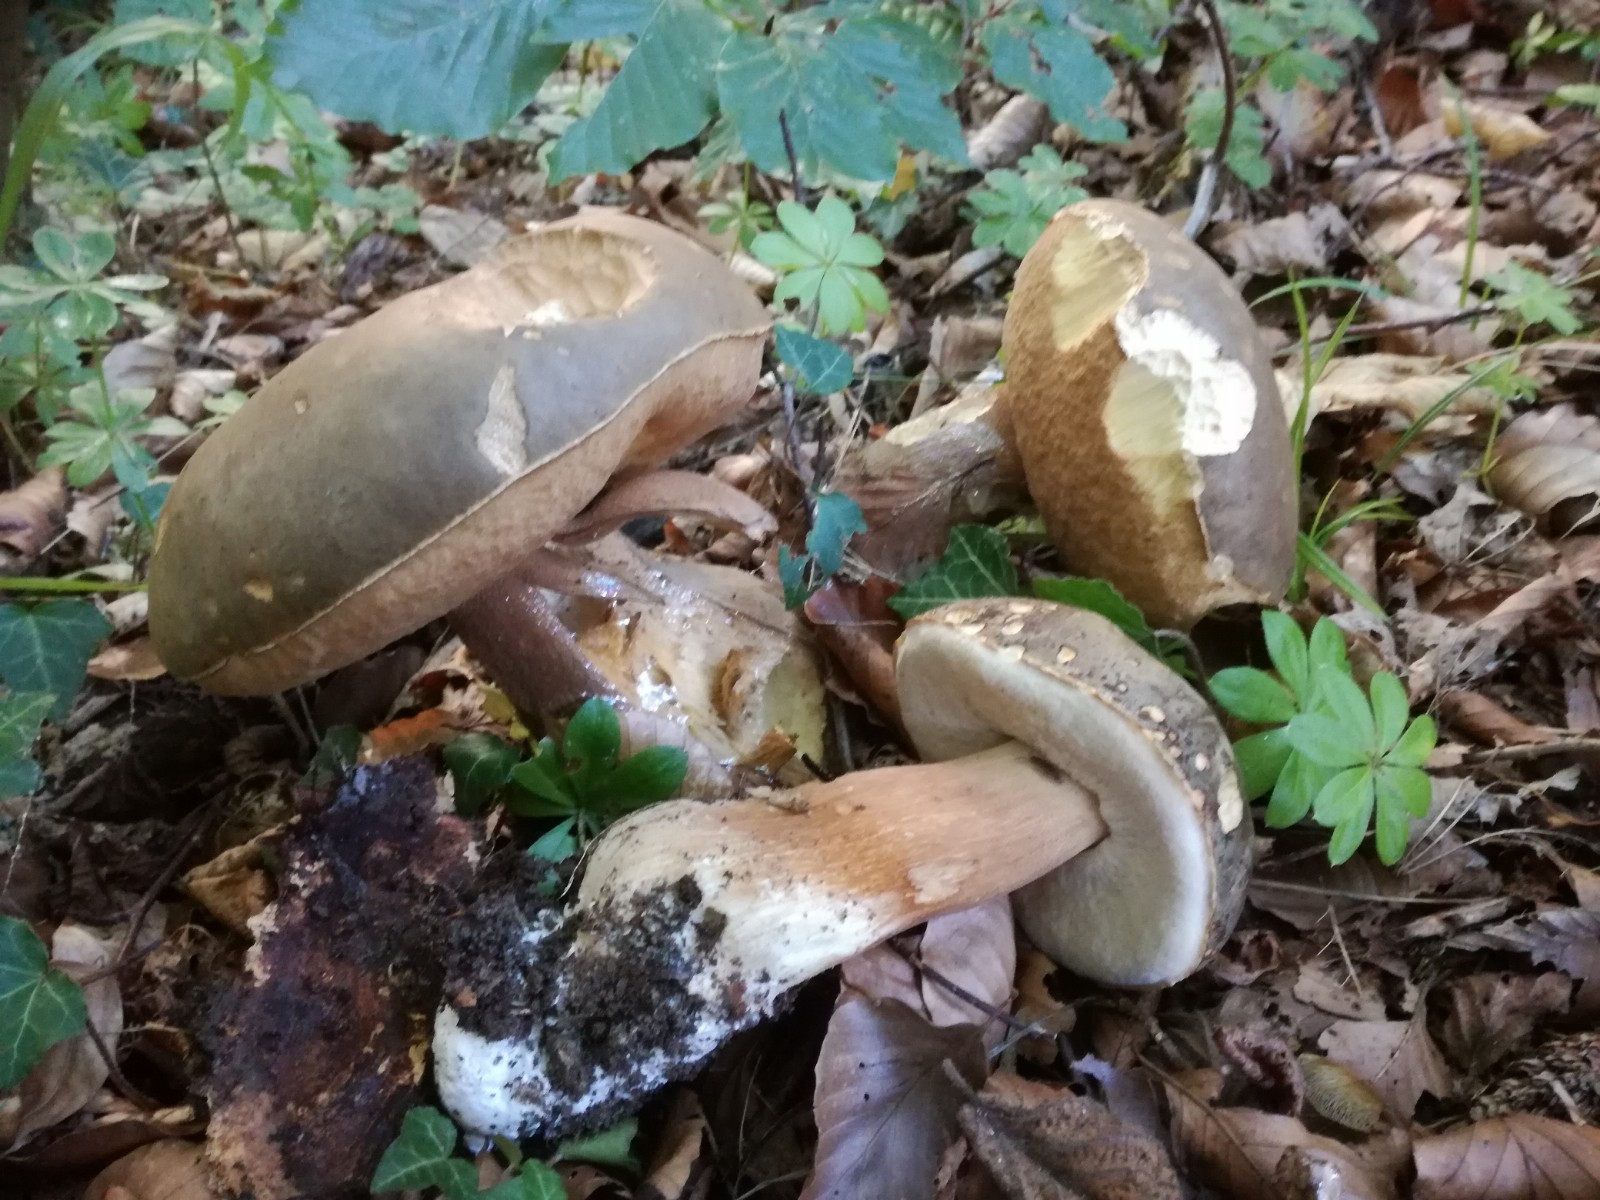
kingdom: Fungi
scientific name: Fungi
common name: bronze-rørhat
